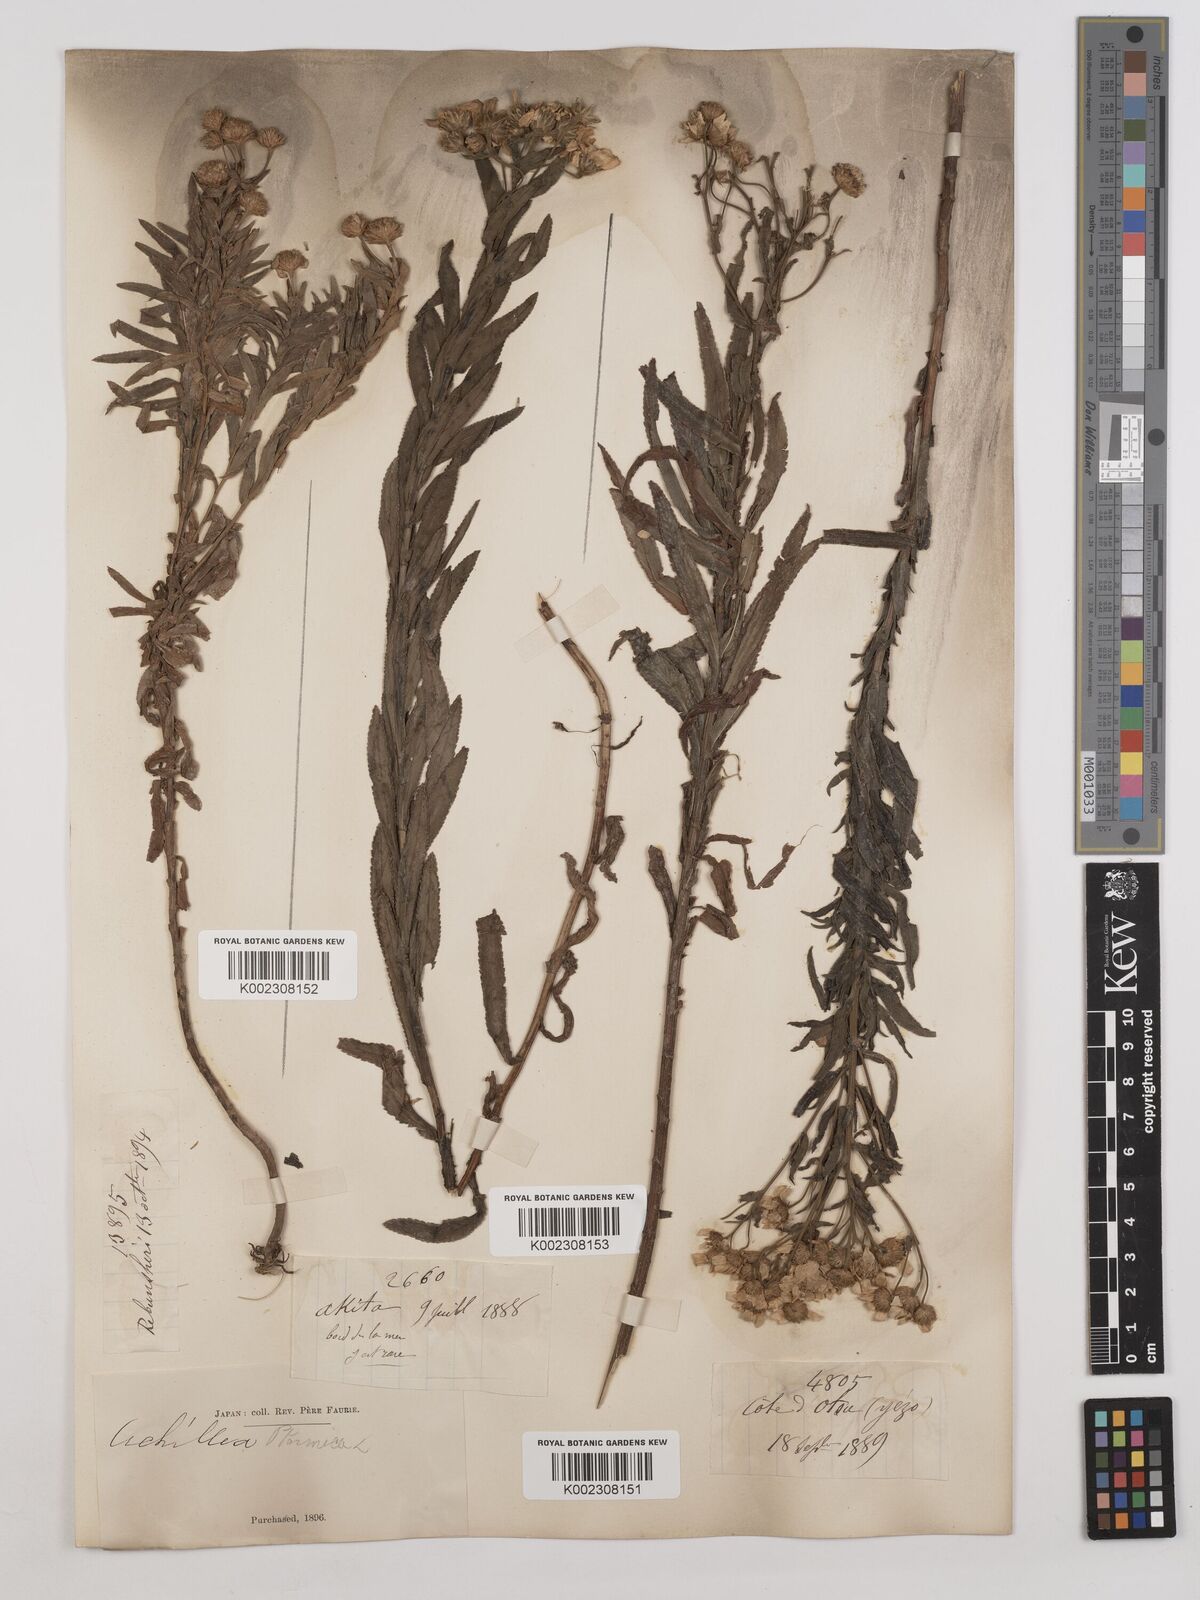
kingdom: Plantae
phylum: Tracheophyta
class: Magnoliopsida
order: Asterales
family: Asteraceae
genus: Achillea
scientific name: Achillea ptarmica
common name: Sneezeweed
